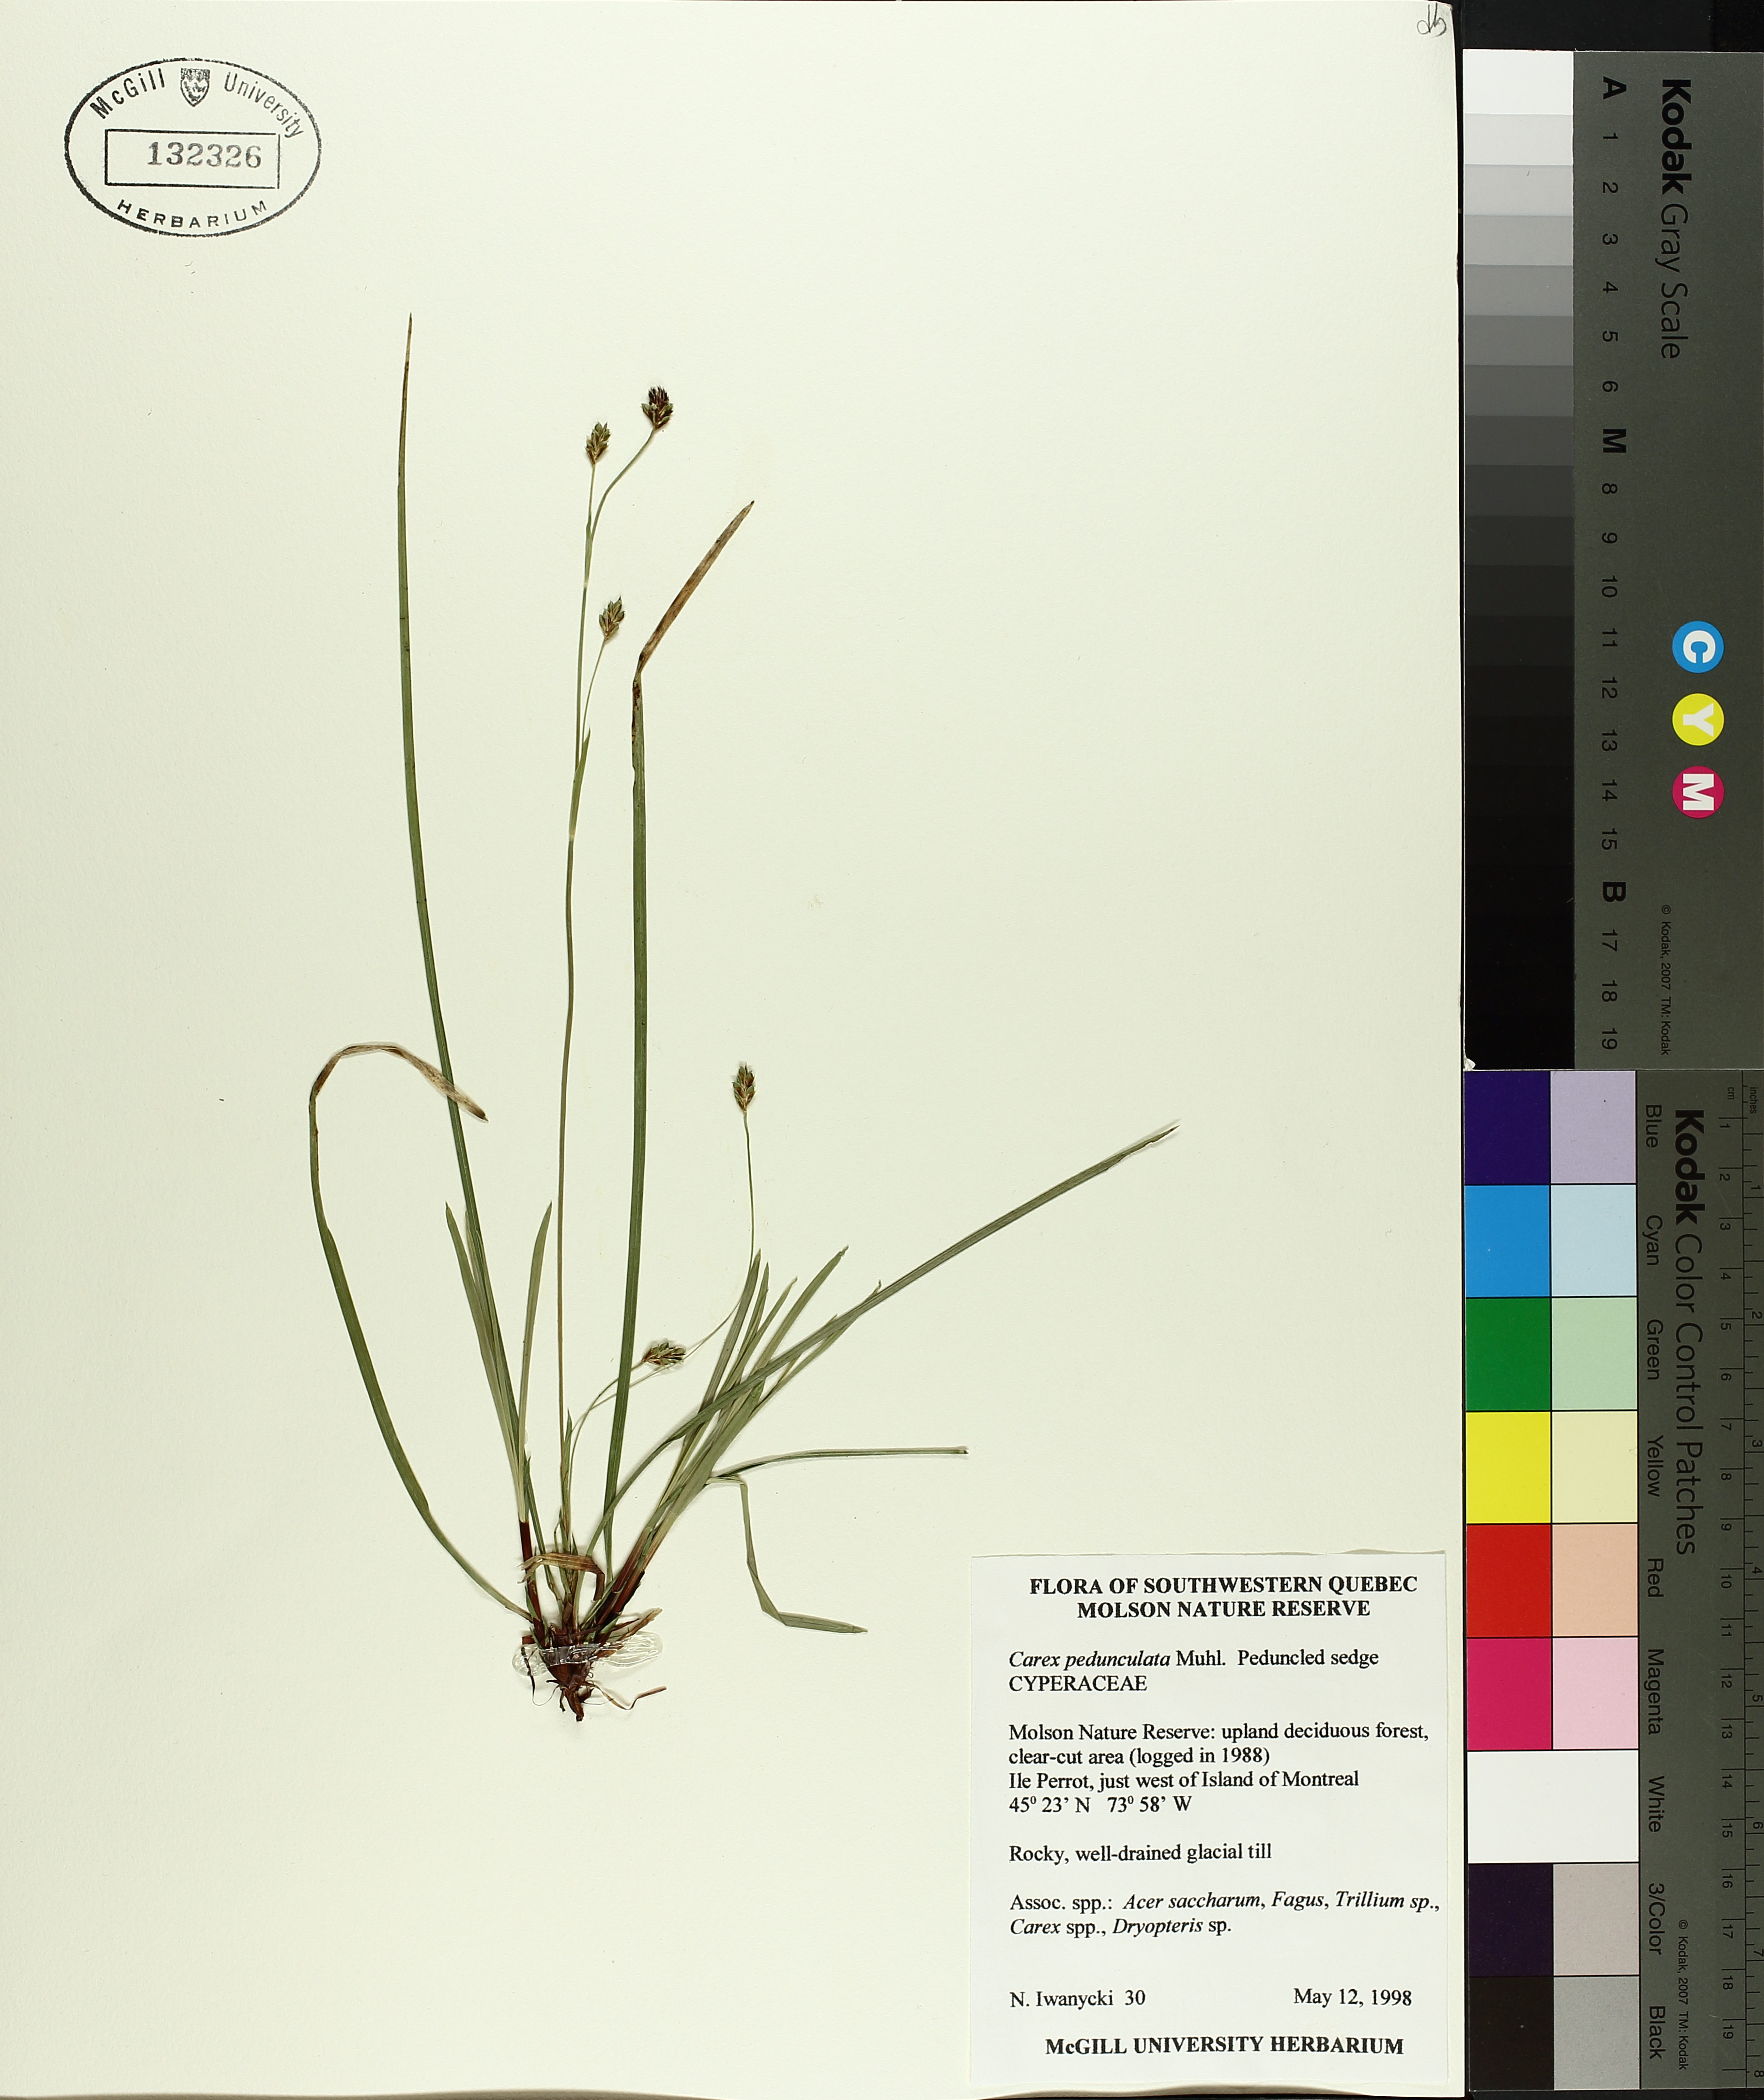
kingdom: Plantae
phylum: Tracheophyta
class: Liliopsida
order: Poales
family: Cyperaceae
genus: Carex
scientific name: Carex pedunculata
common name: Pedunculate sedge
